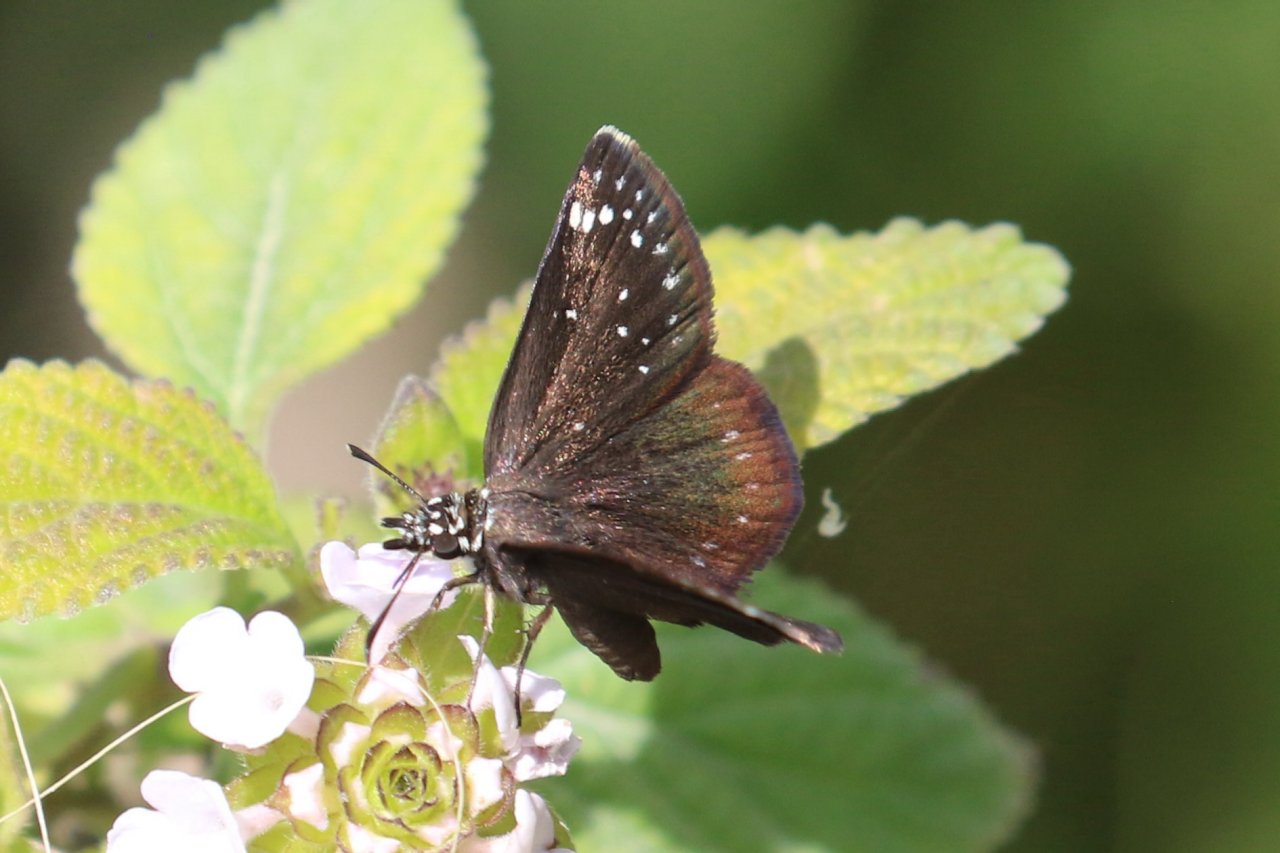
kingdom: Animalia
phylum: Arthropoda
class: Insecta
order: Lepidoptera
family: Hesperiidae
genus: Pholisora
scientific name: Pholisora catullus
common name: Common Sootywing
